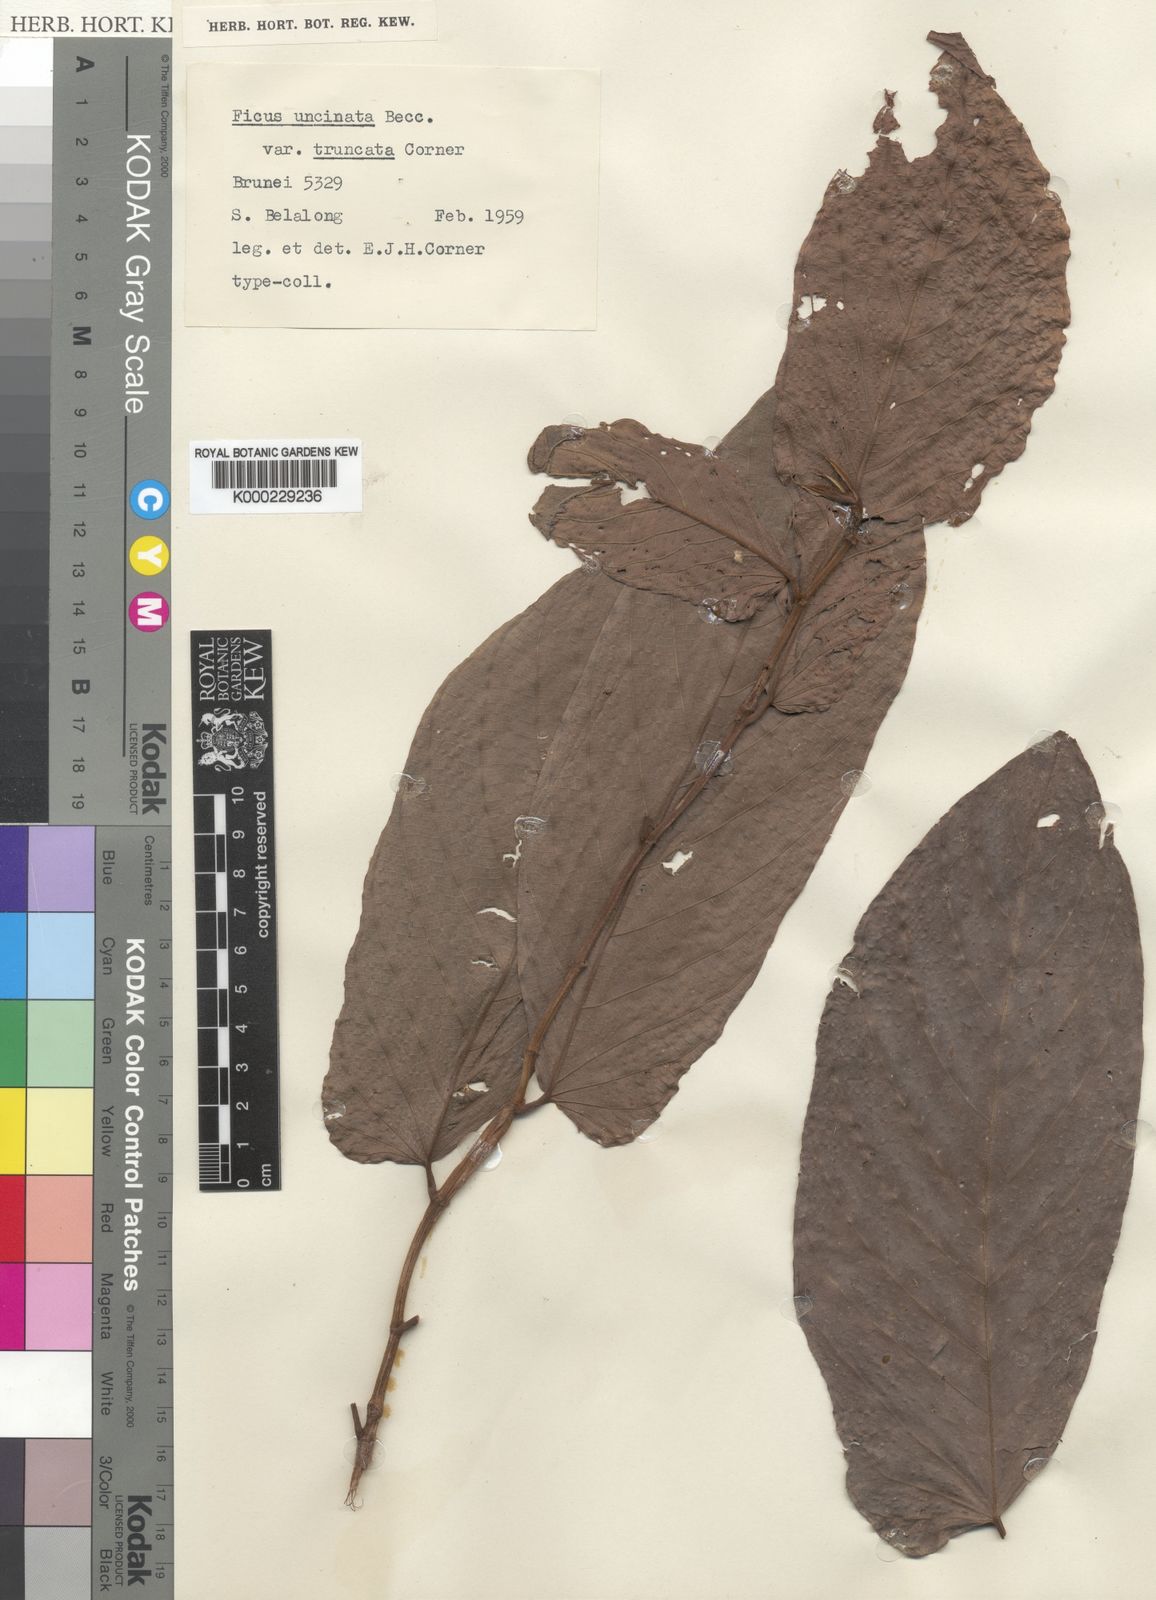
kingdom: Plantae
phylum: Tracheophyta
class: Magnoliopsida
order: Rosales
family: Moraceae
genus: Ficus
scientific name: Ficus malayana
